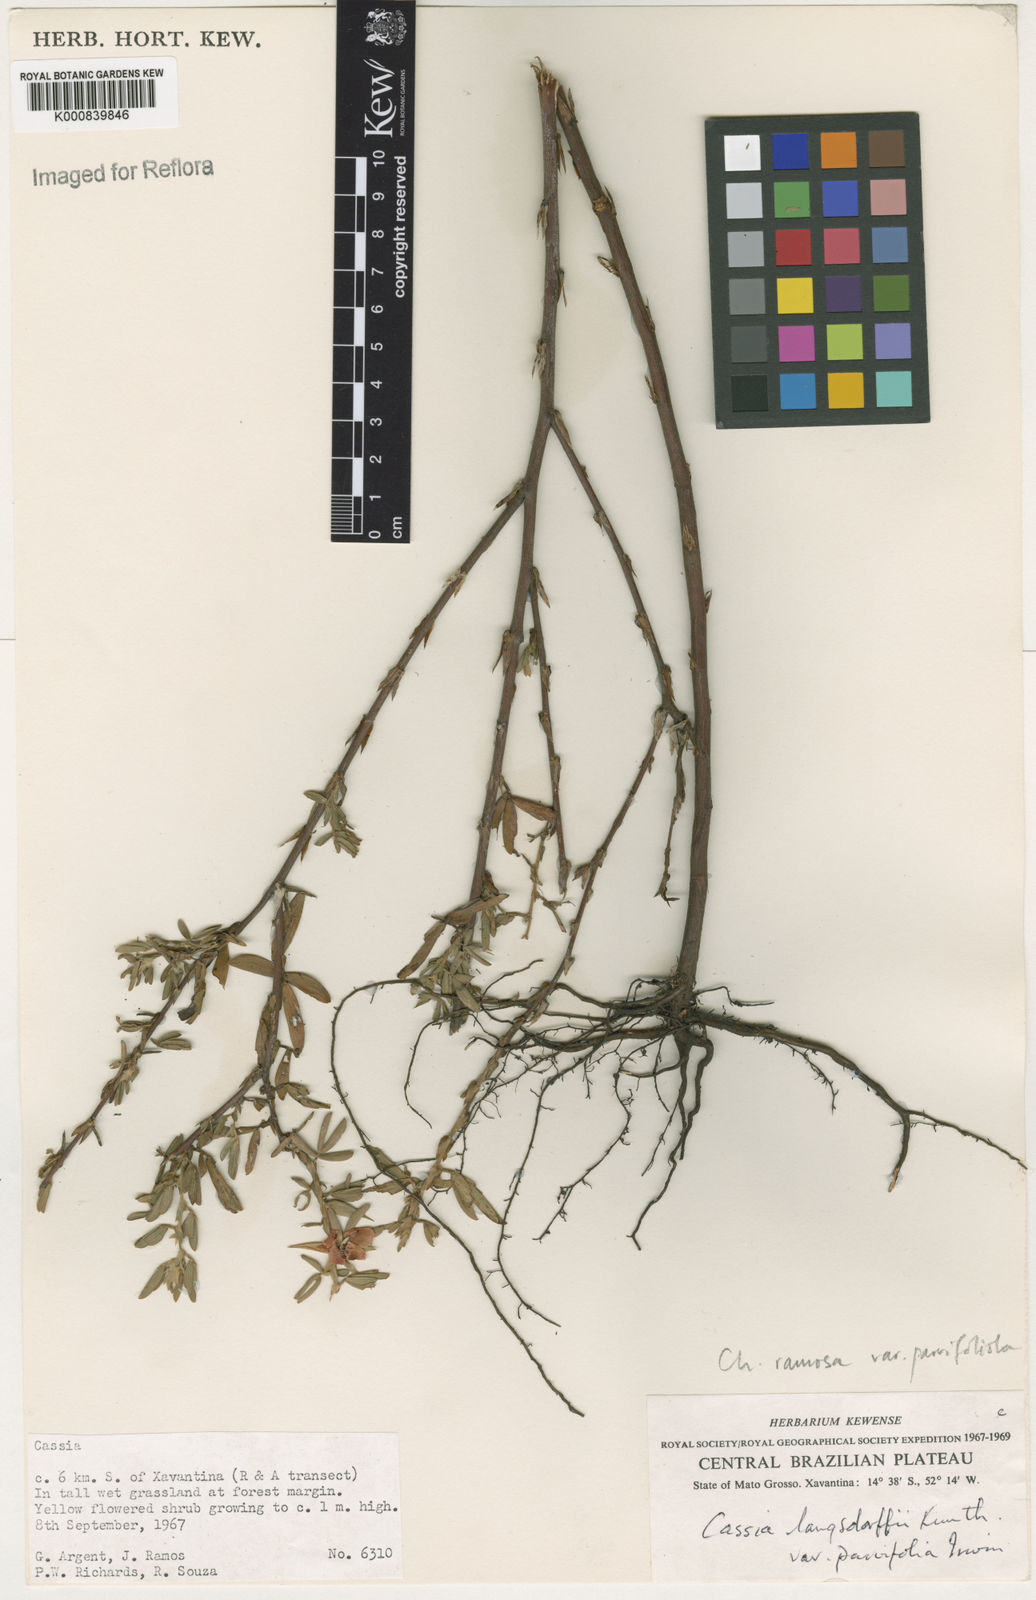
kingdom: Plantae
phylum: Tracheophyta
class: Magnoliopsida
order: Fabales
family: Fabaceae
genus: Chamaecrista
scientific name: Chamaecrista desvauxii
